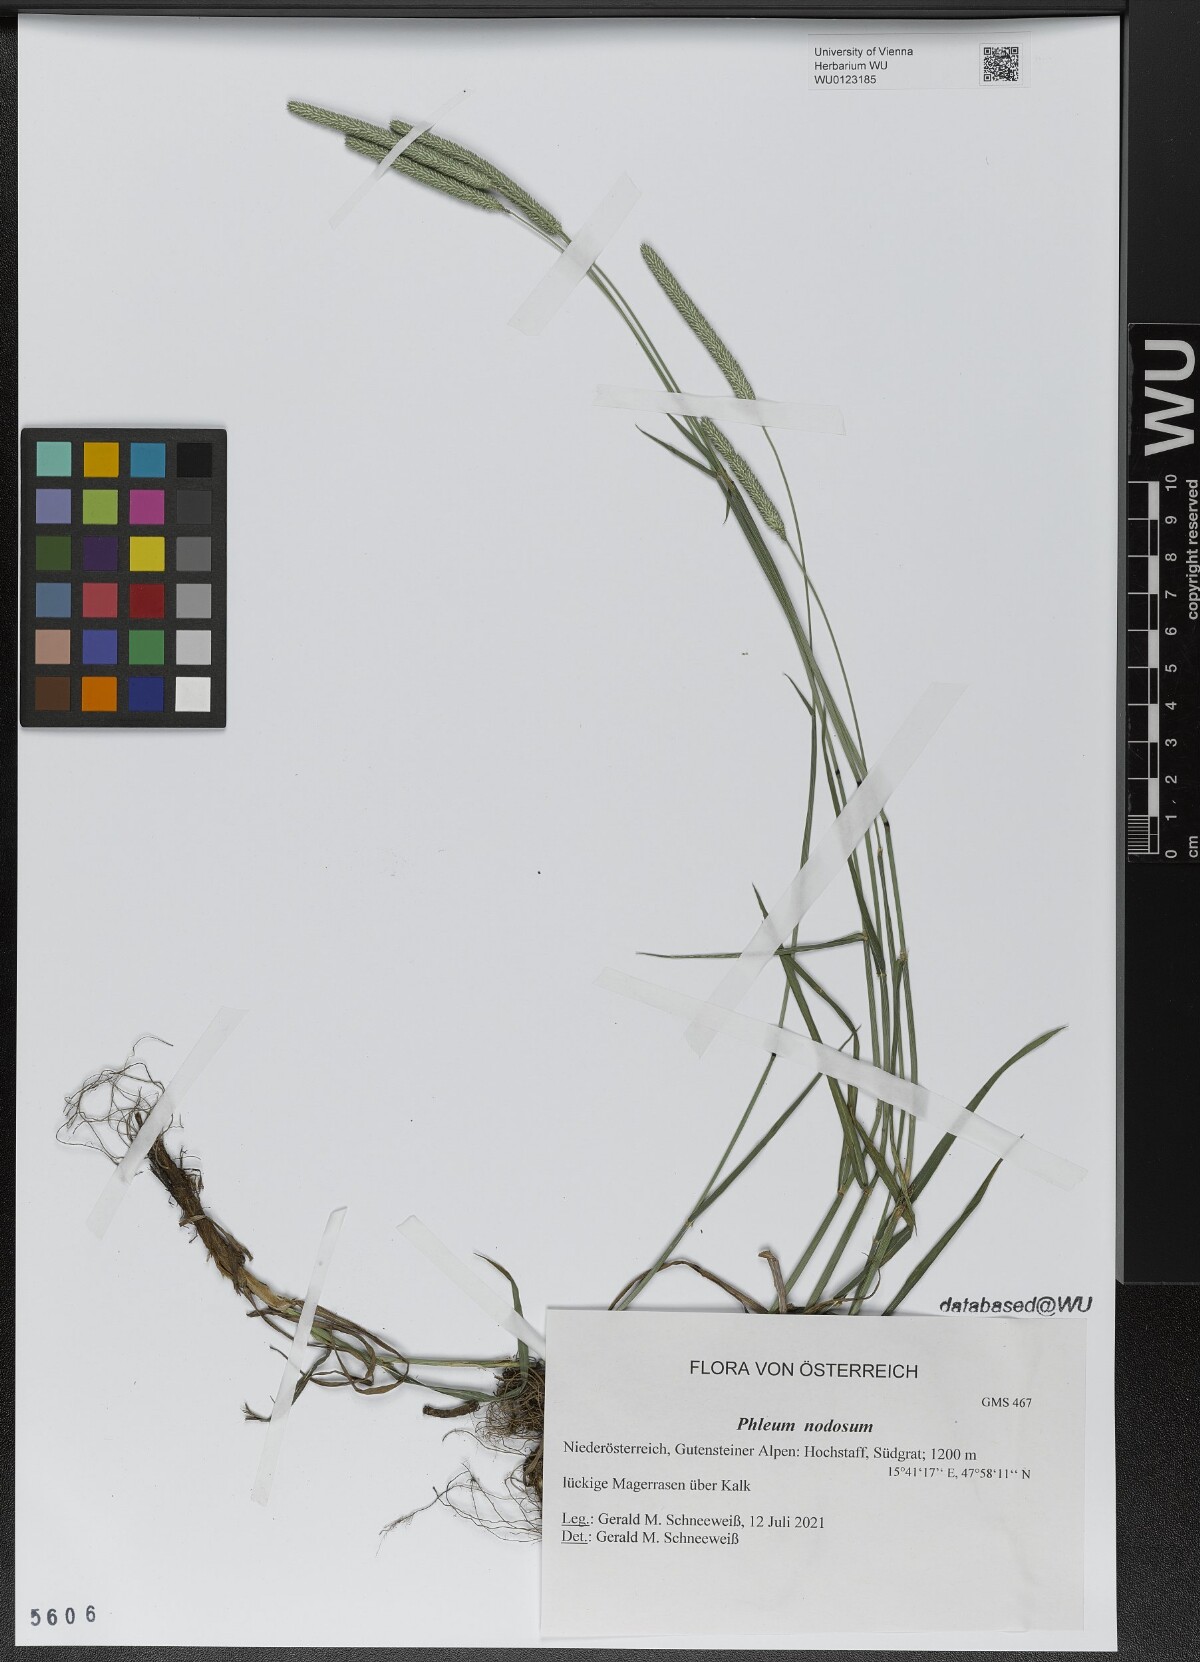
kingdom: Plantae
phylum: Tracheophyta
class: Liliopsida
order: Poales
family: Poaceae
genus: Phleum
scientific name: Phleum pratense
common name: Timothy grass
